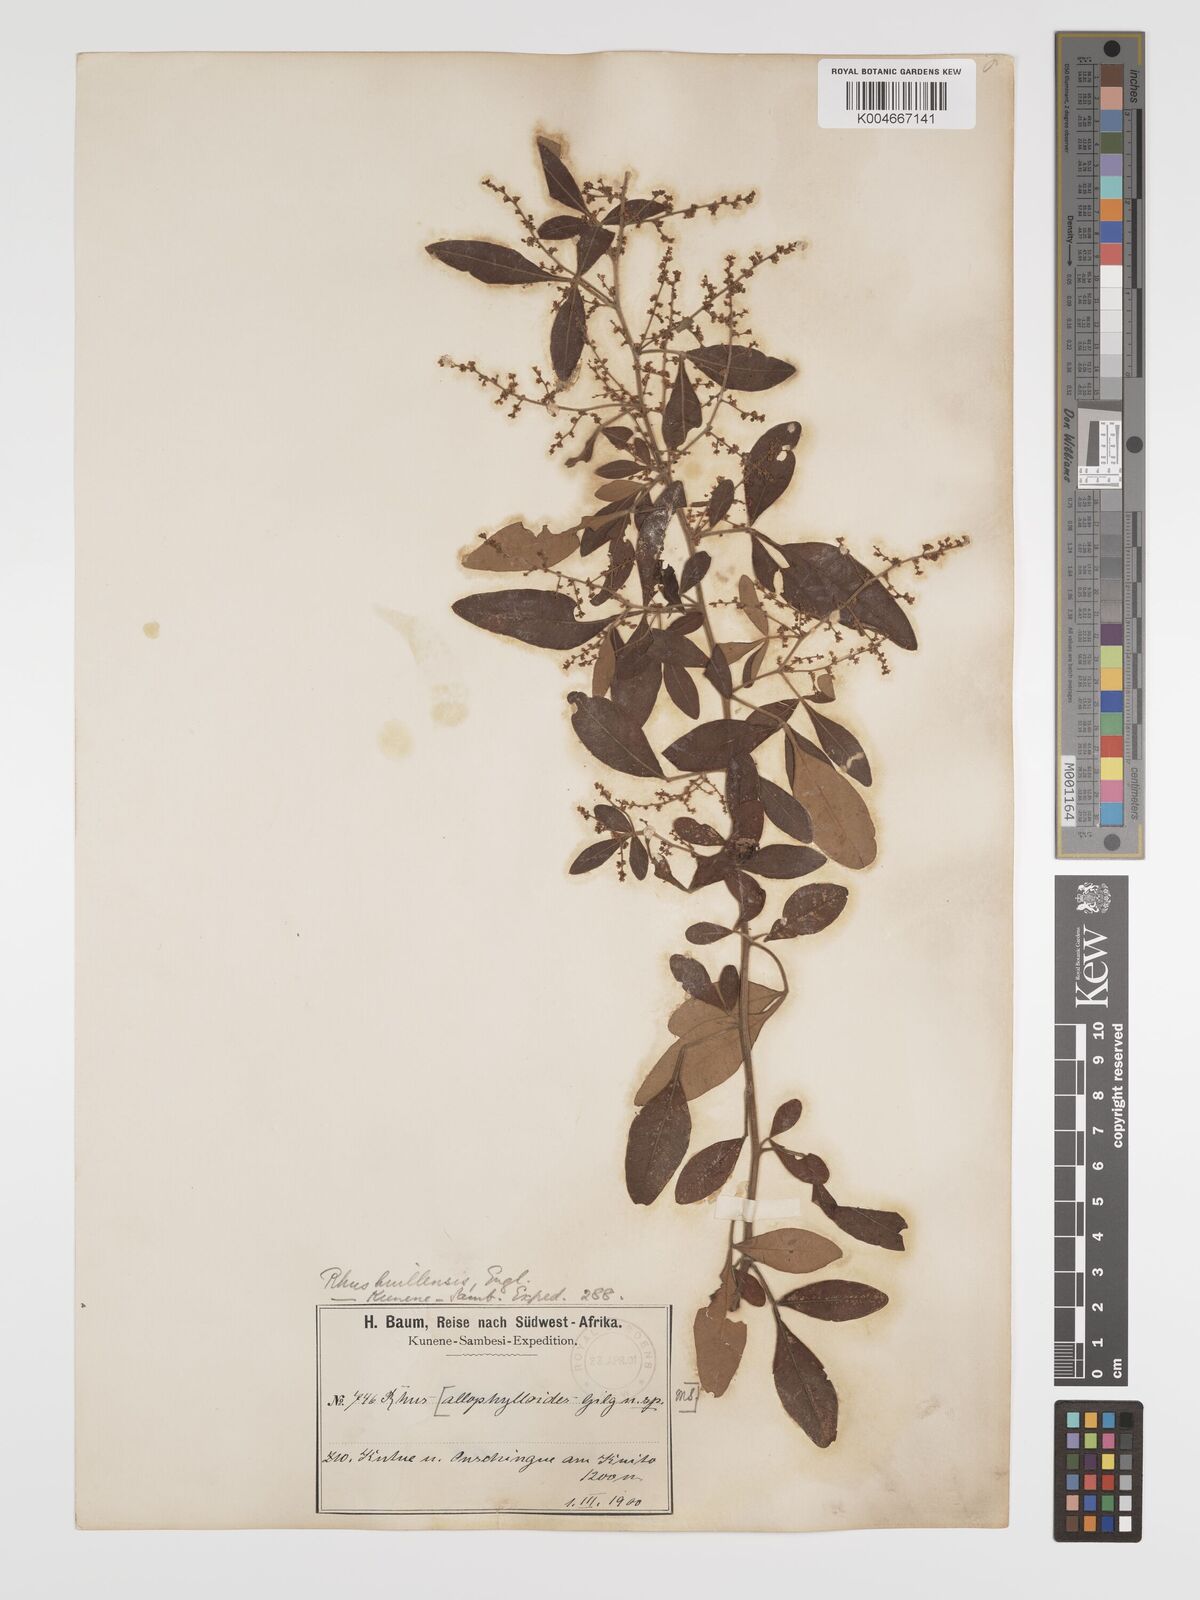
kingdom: Plantae
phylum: Tracheophyta
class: Magnoliopsida
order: Sapindales
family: Anacardiaceae
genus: Searsia
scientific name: Searsia quartiniana
